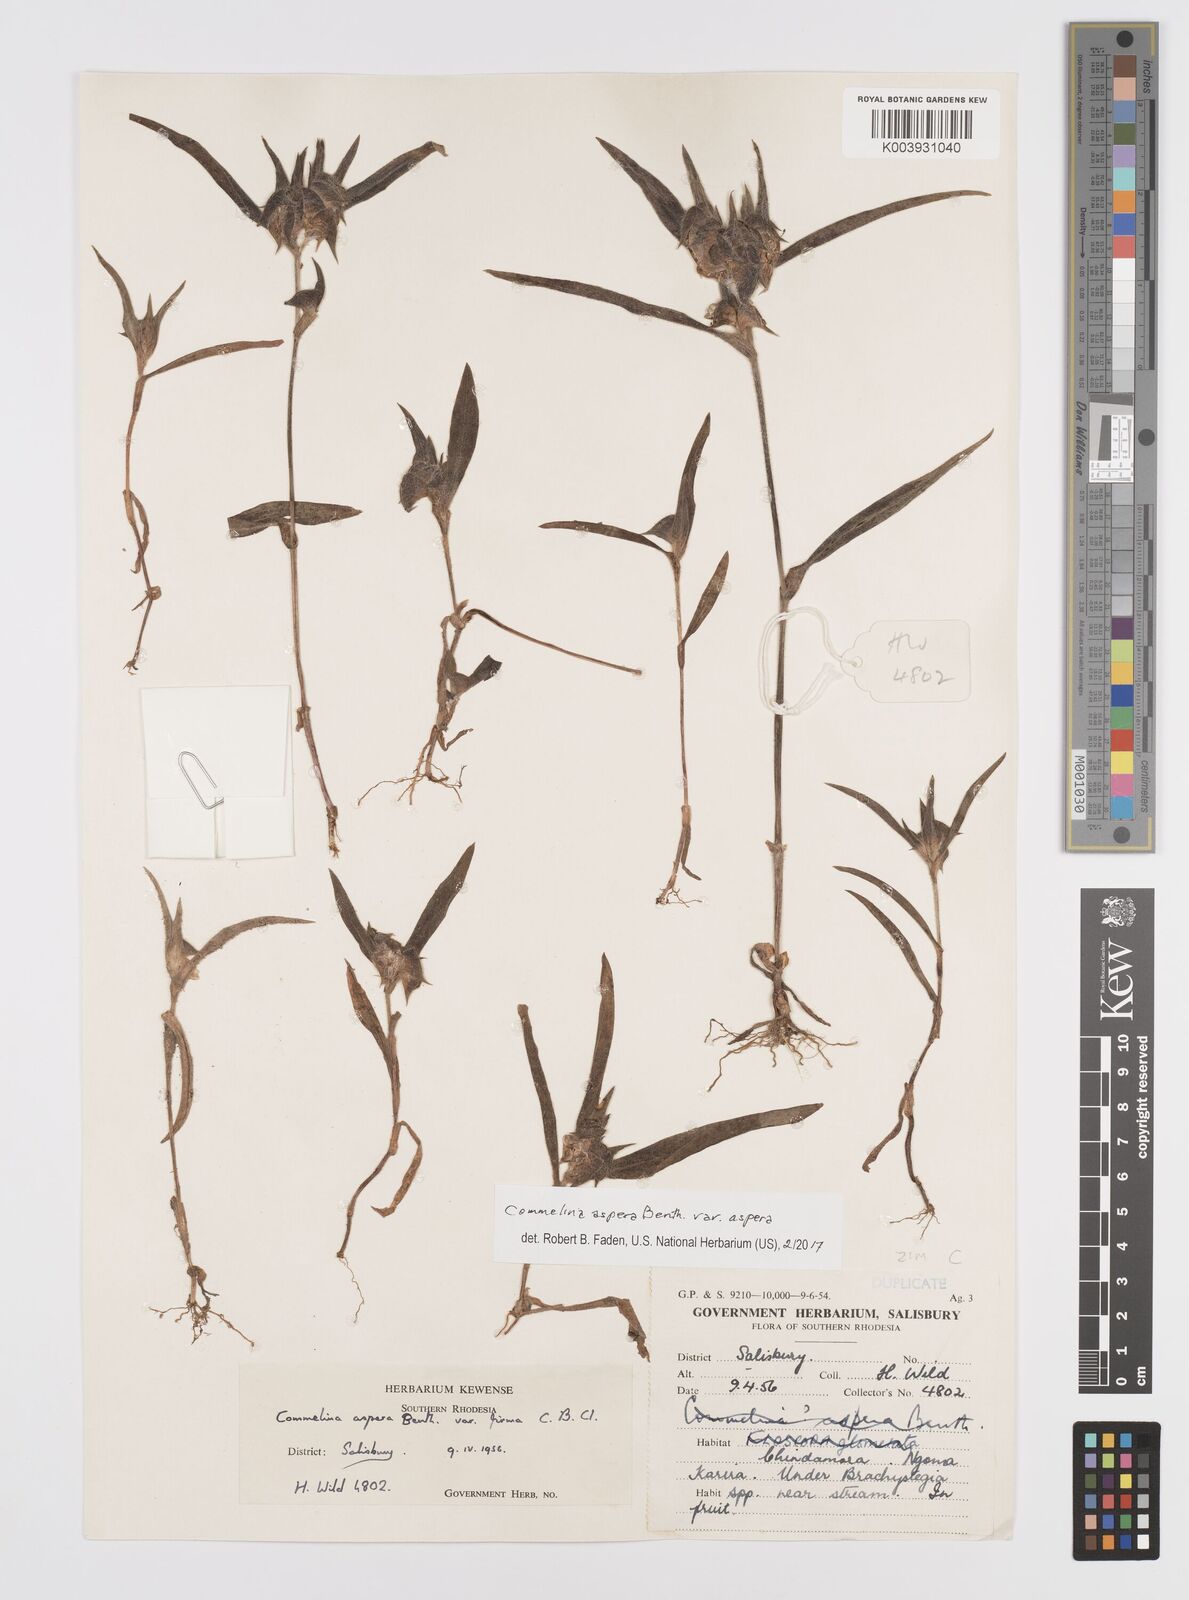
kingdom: Plantae
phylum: Tracheophyta
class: Liliopsida
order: Commelinales
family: Commelinaceae
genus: Commelina
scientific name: Commelina aspera
